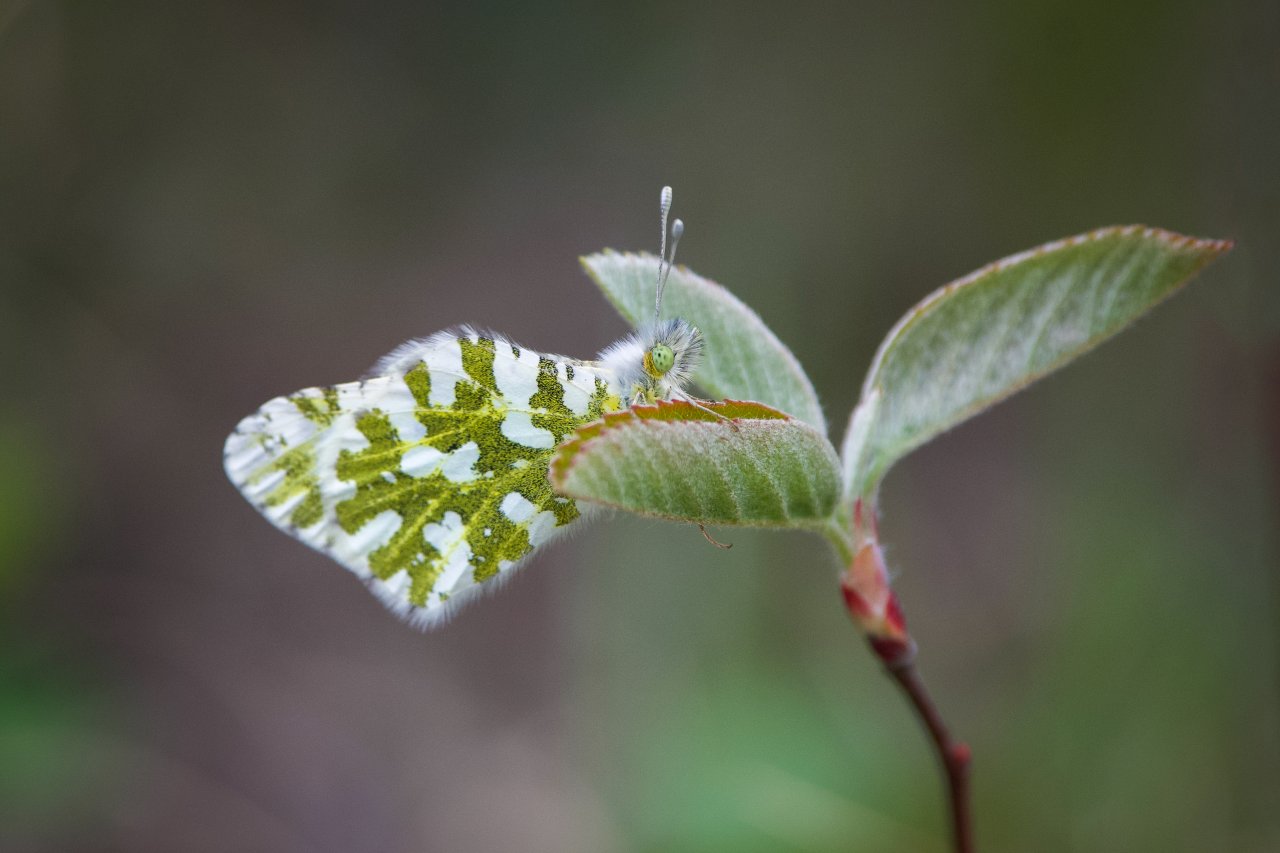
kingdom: Animalia
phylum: Arthropoda
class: Insecta
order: Lepidoptera
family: Pieridae
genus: Euchloe
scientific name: Euchloe ausonides
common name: Large Marble
